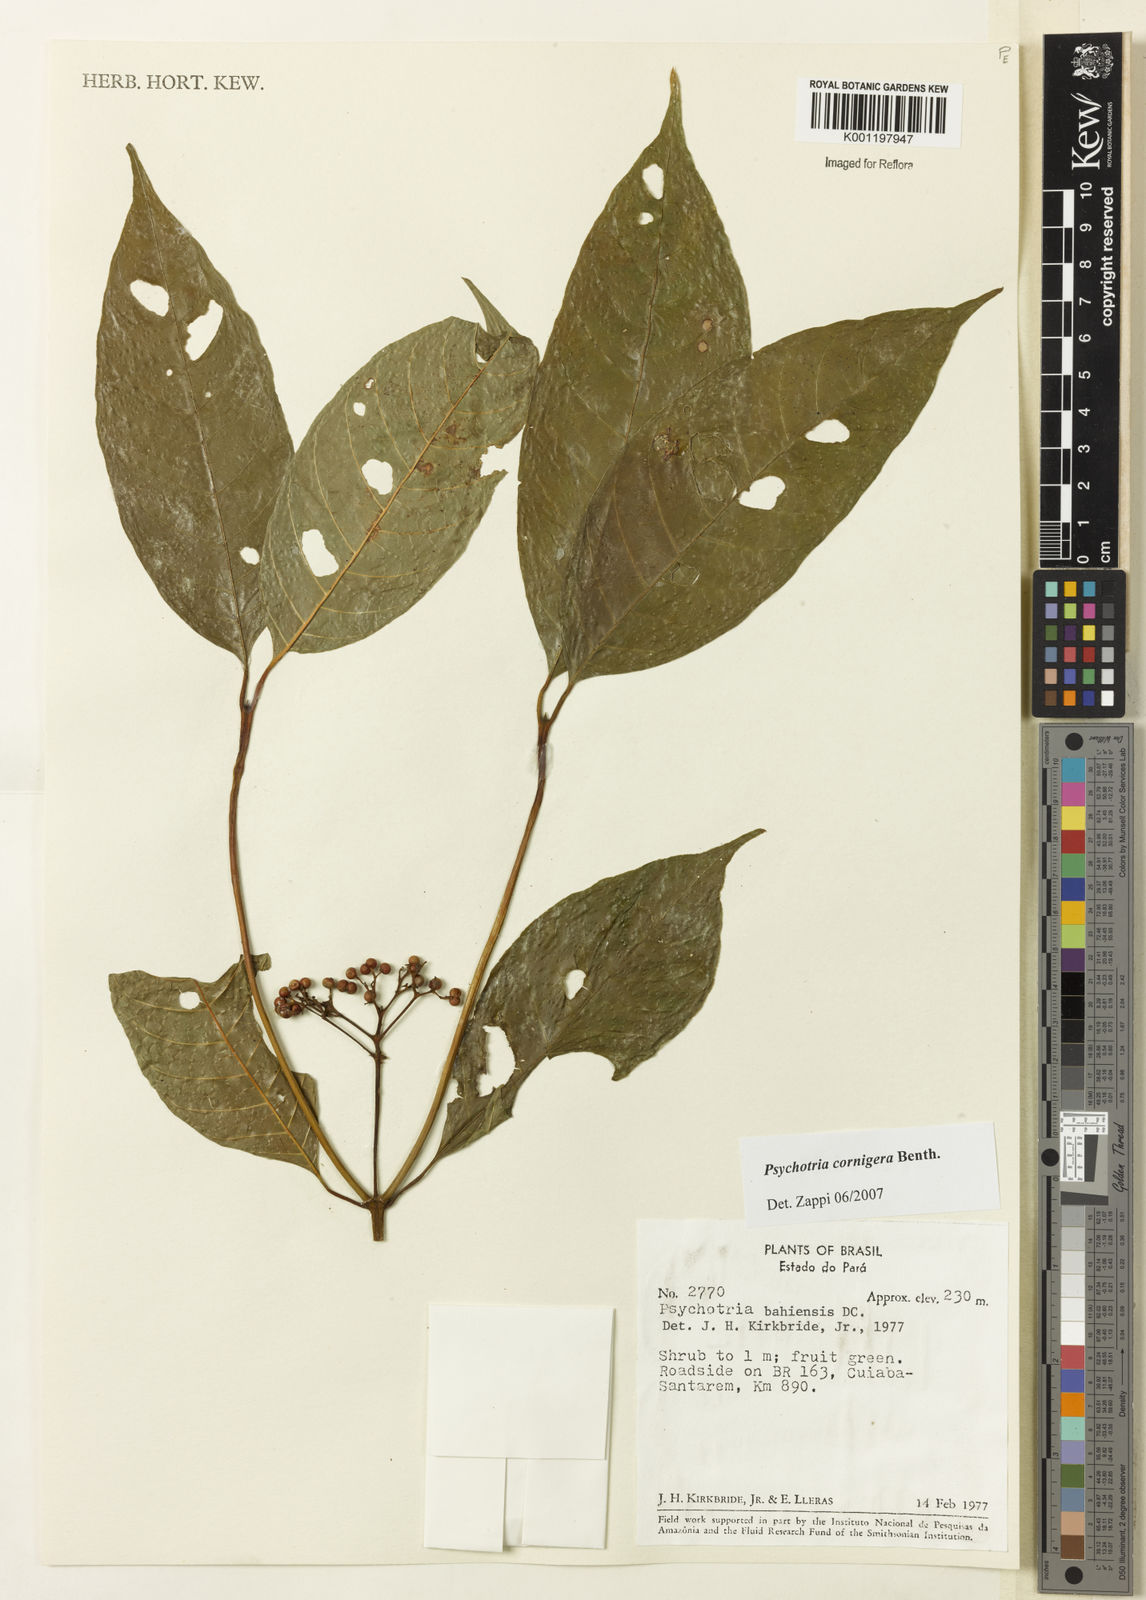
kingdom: Plantae
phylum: Tracheophyta
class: Magnoliopsida
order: Gentianales
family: Rubiaceae
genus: Psychotria
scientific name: Psychotria bahiensis
